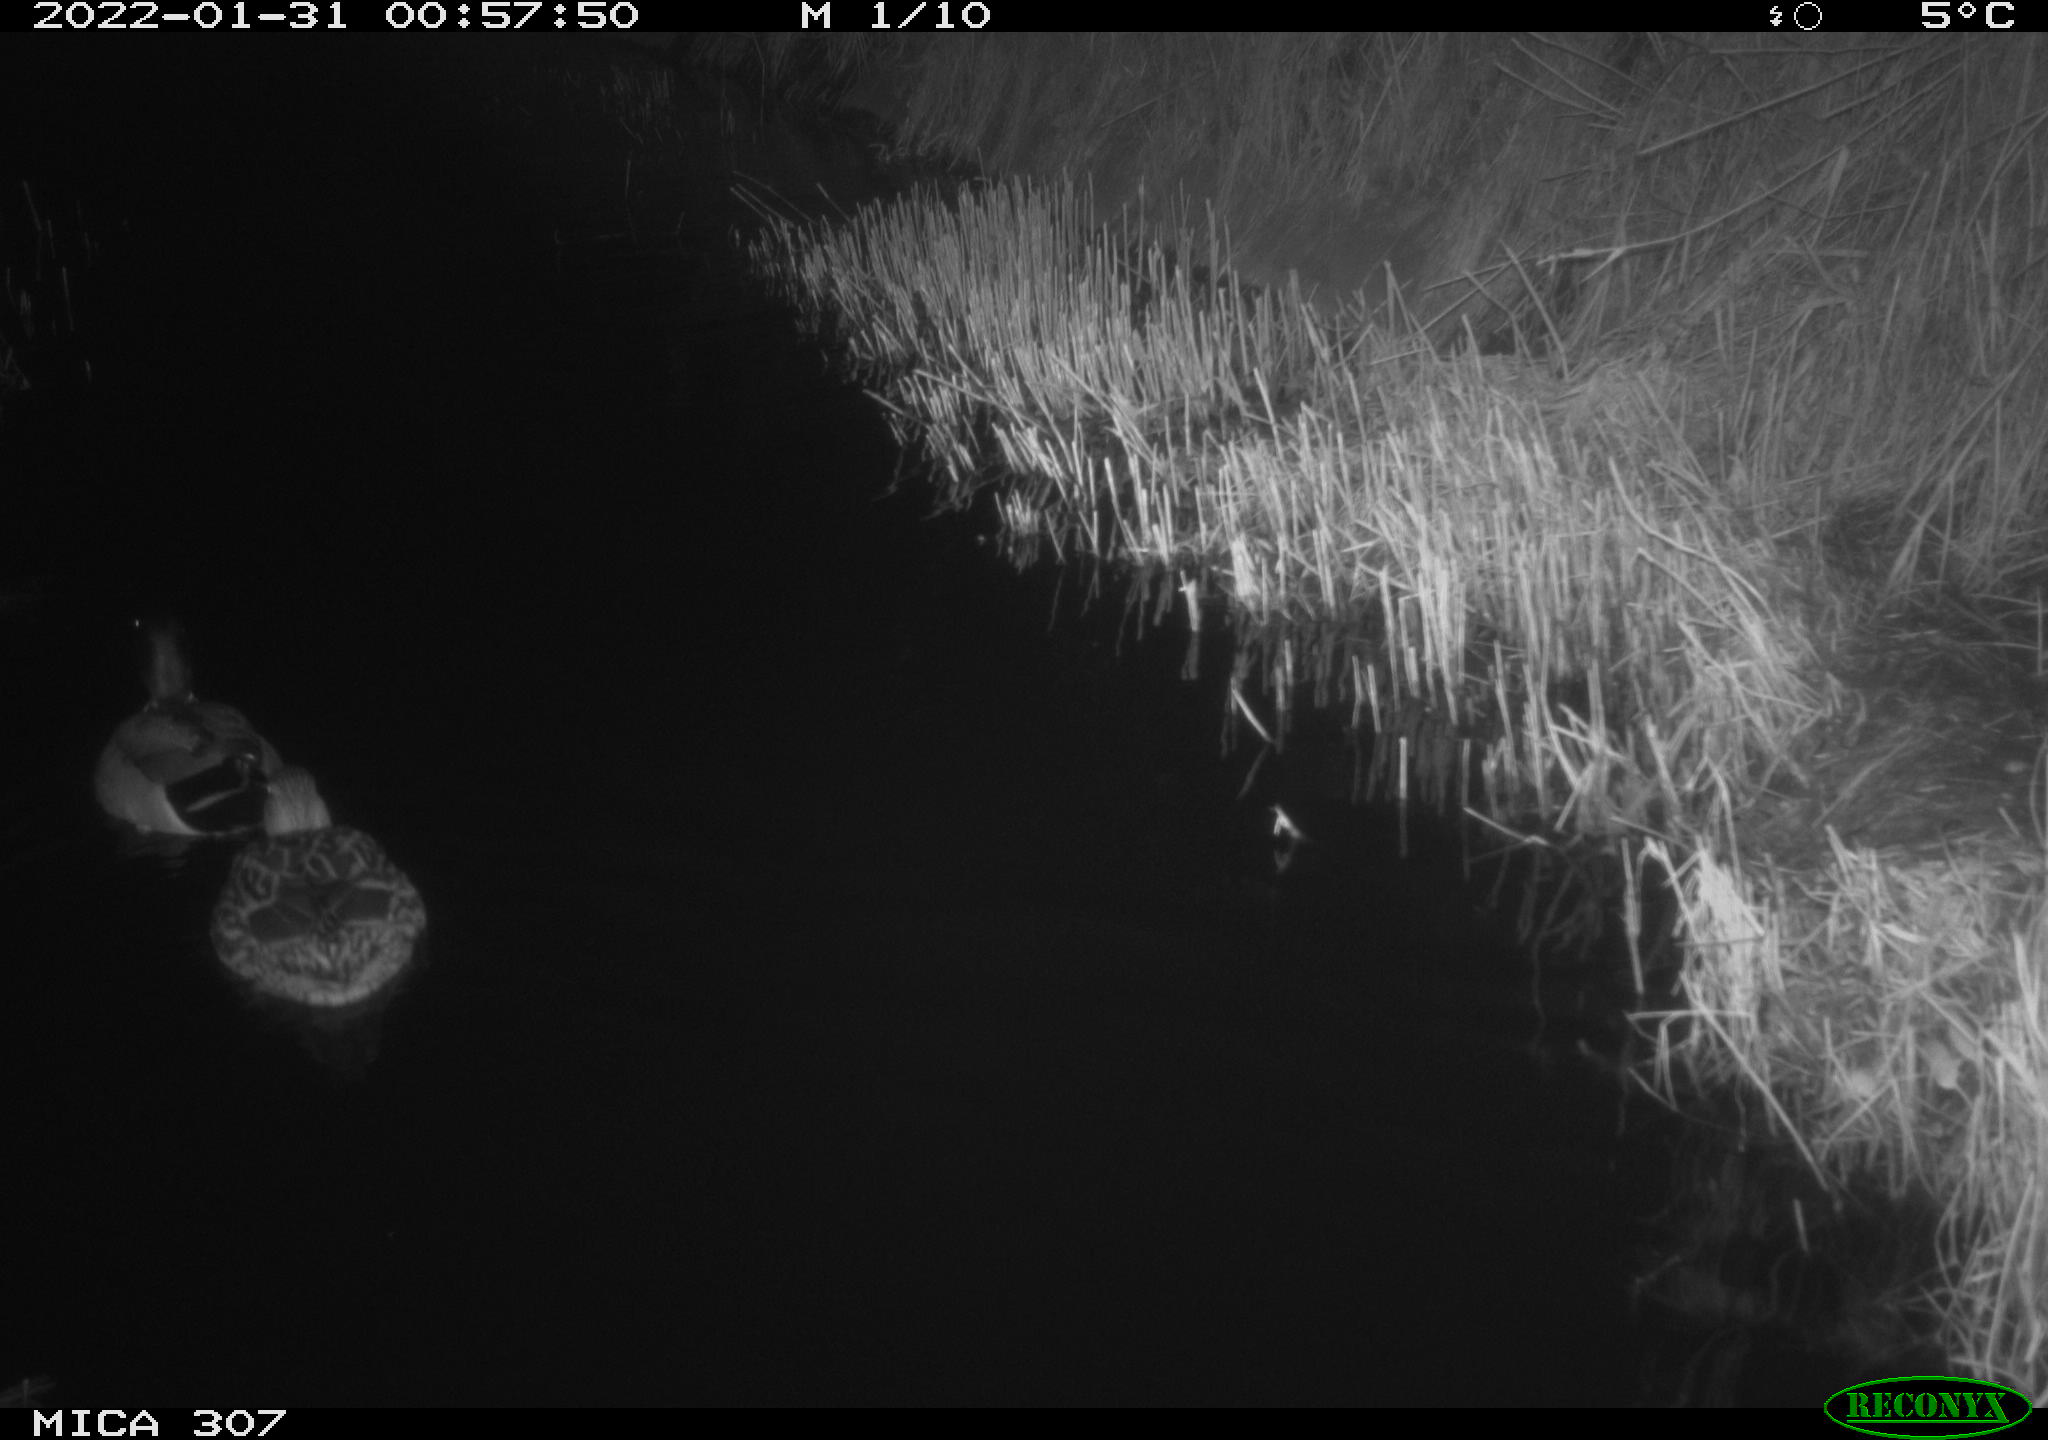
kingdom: Animalia
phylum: Chordata
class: Aves
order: Anseriformes
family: Anatidae
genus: Anas
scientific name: Anas
